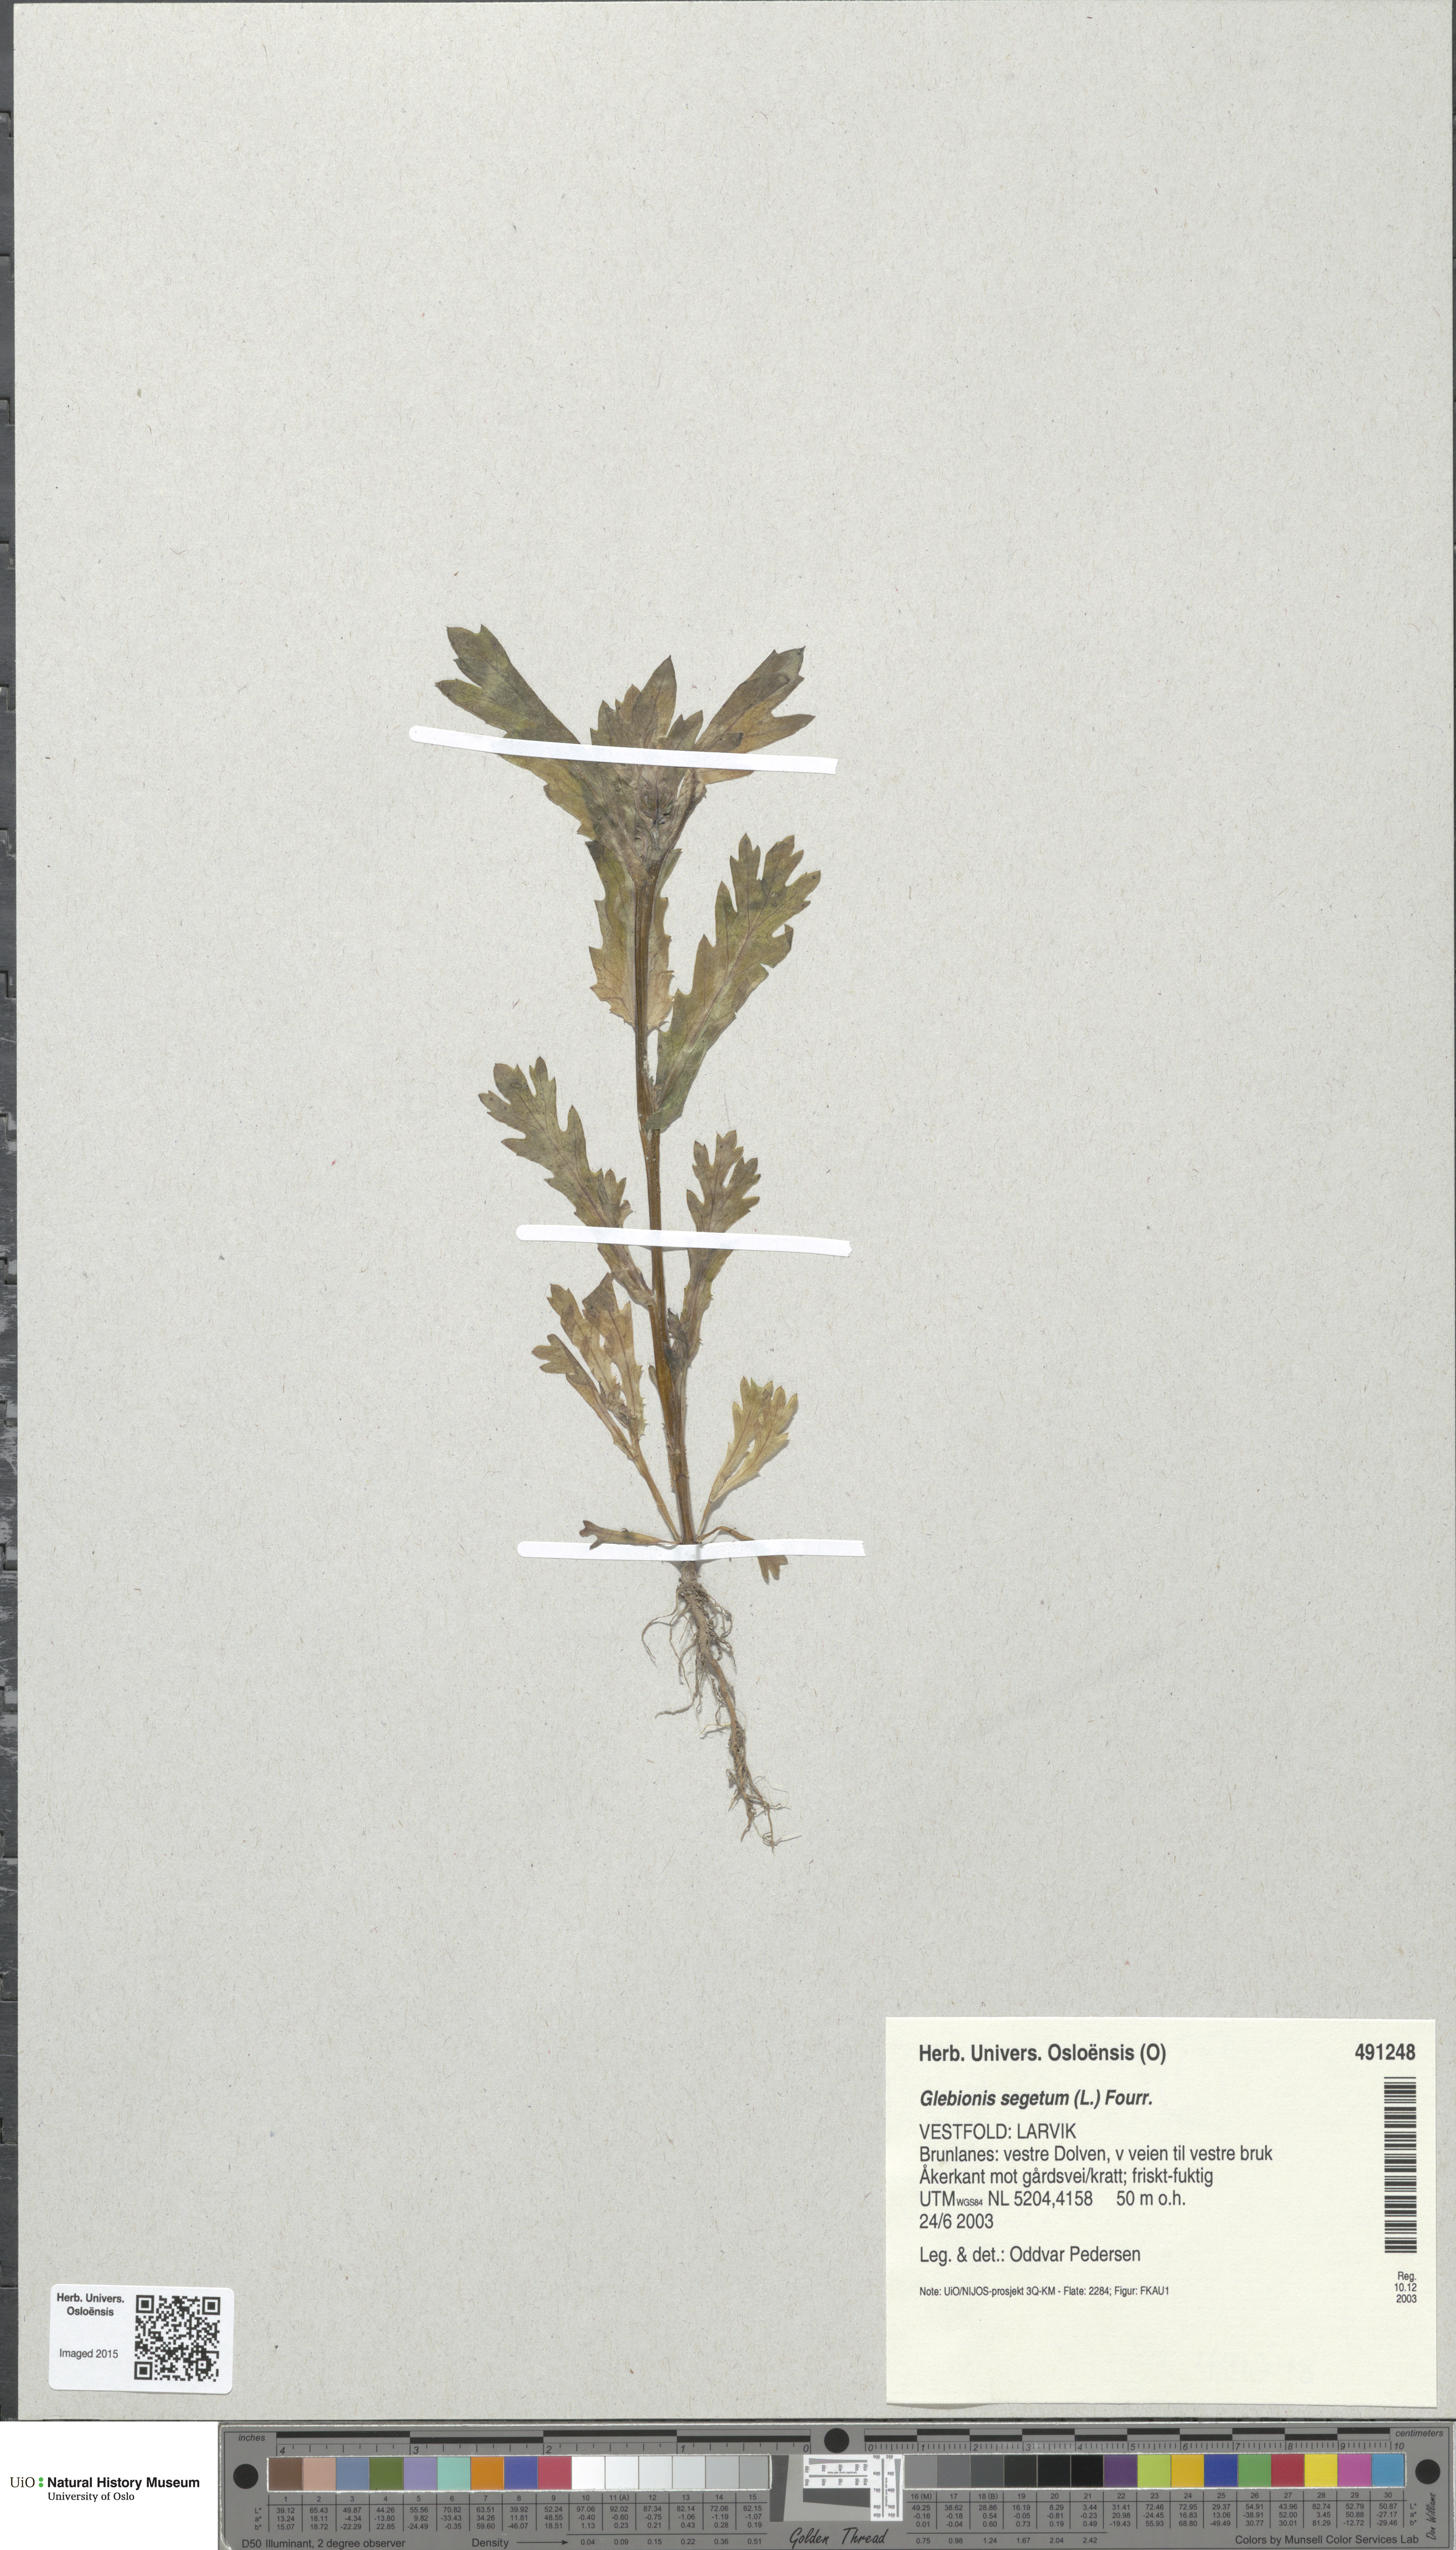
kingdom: Plantae
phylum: Tracheophyta
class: Magnoliopsida
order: Asterales
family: Asteraceae
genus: Glebionis
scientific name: Glebionis segetum
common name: Corndaisy
